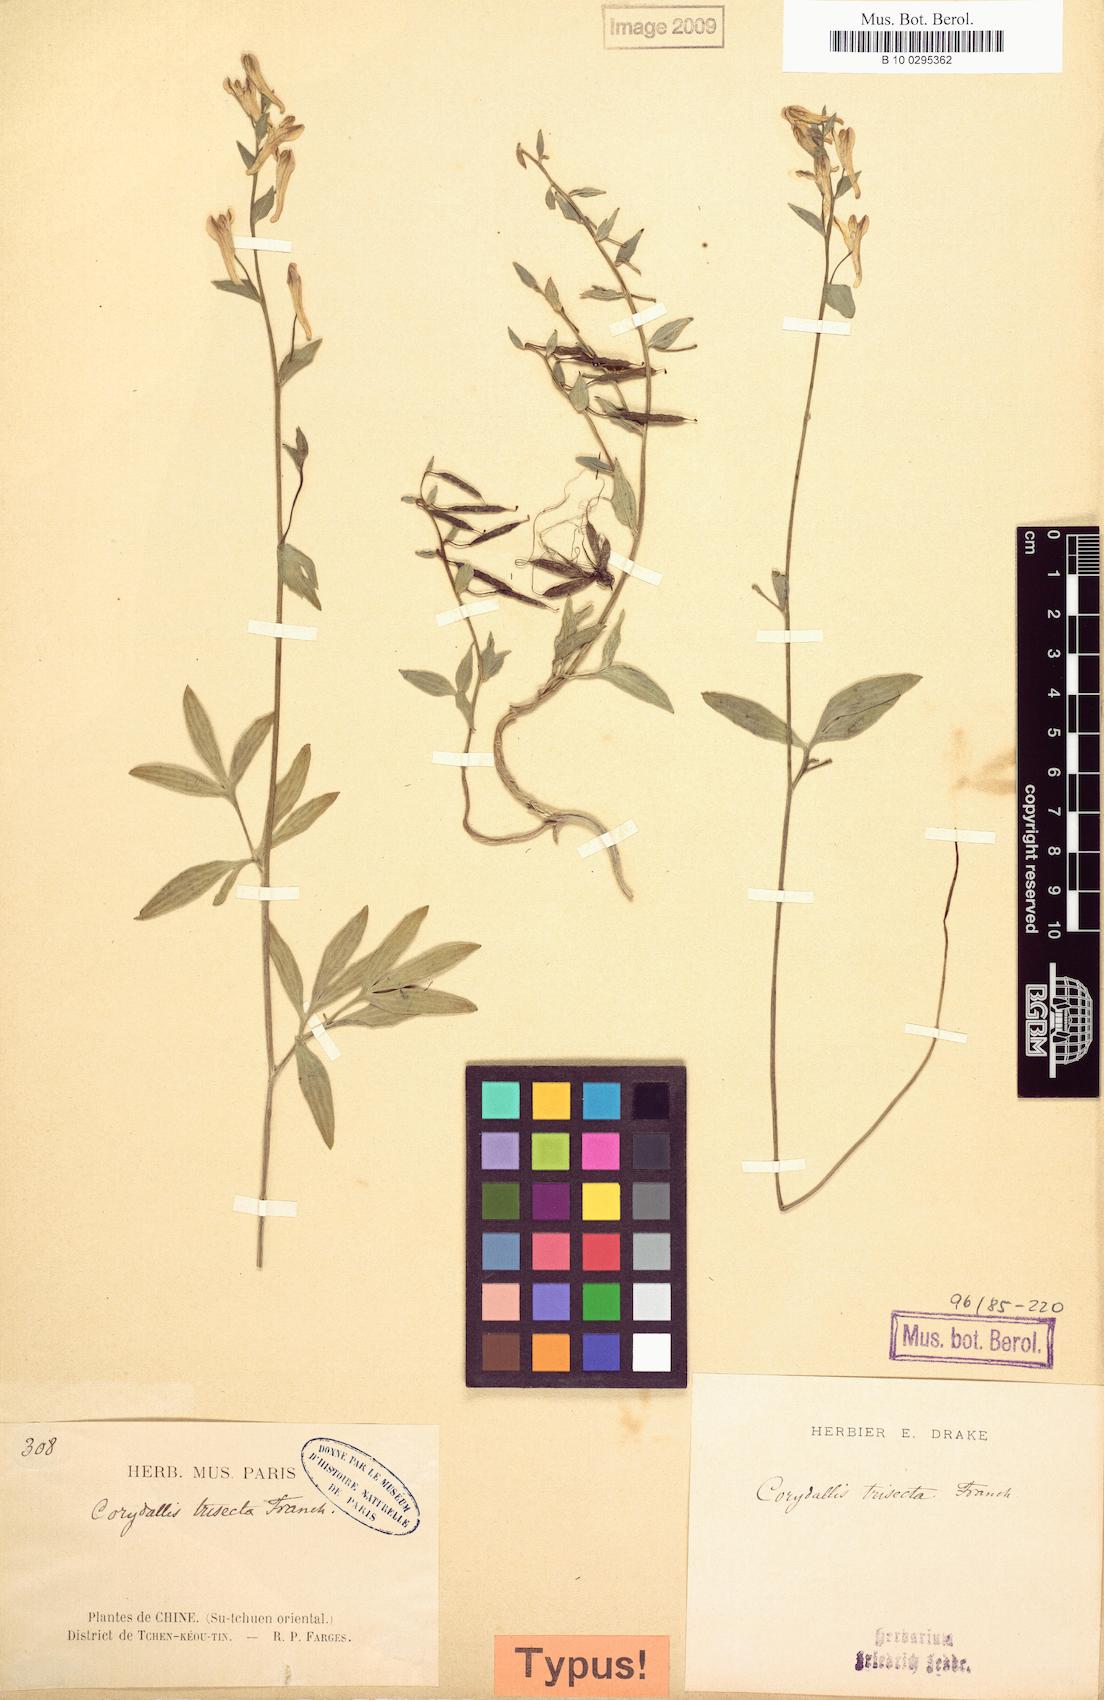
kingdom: Plantae
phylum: Tracheophyta
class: Magnoliopsida
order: Ranunculales
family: Papaveraceae
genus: Corydalis
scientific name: Corydalis trisecta
